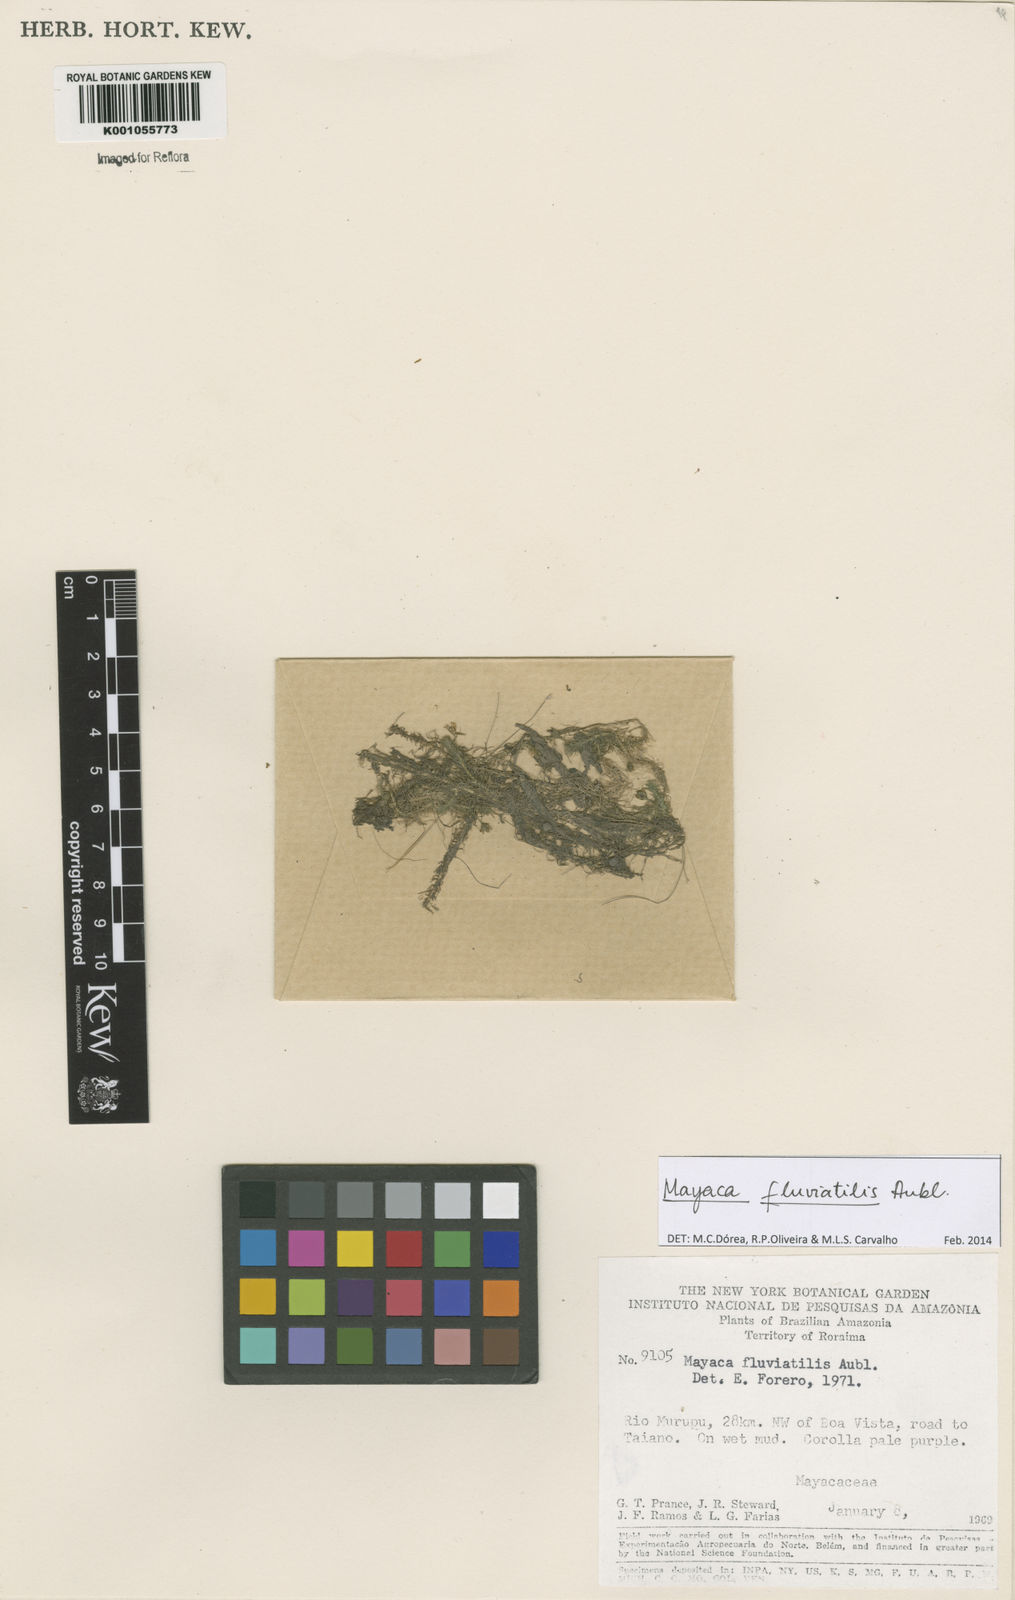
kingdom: Plantae
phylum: Tracheophyta
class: Liliopsida
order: Poales
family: Mayacaceae
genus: Mayaca
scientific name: Mayaca
